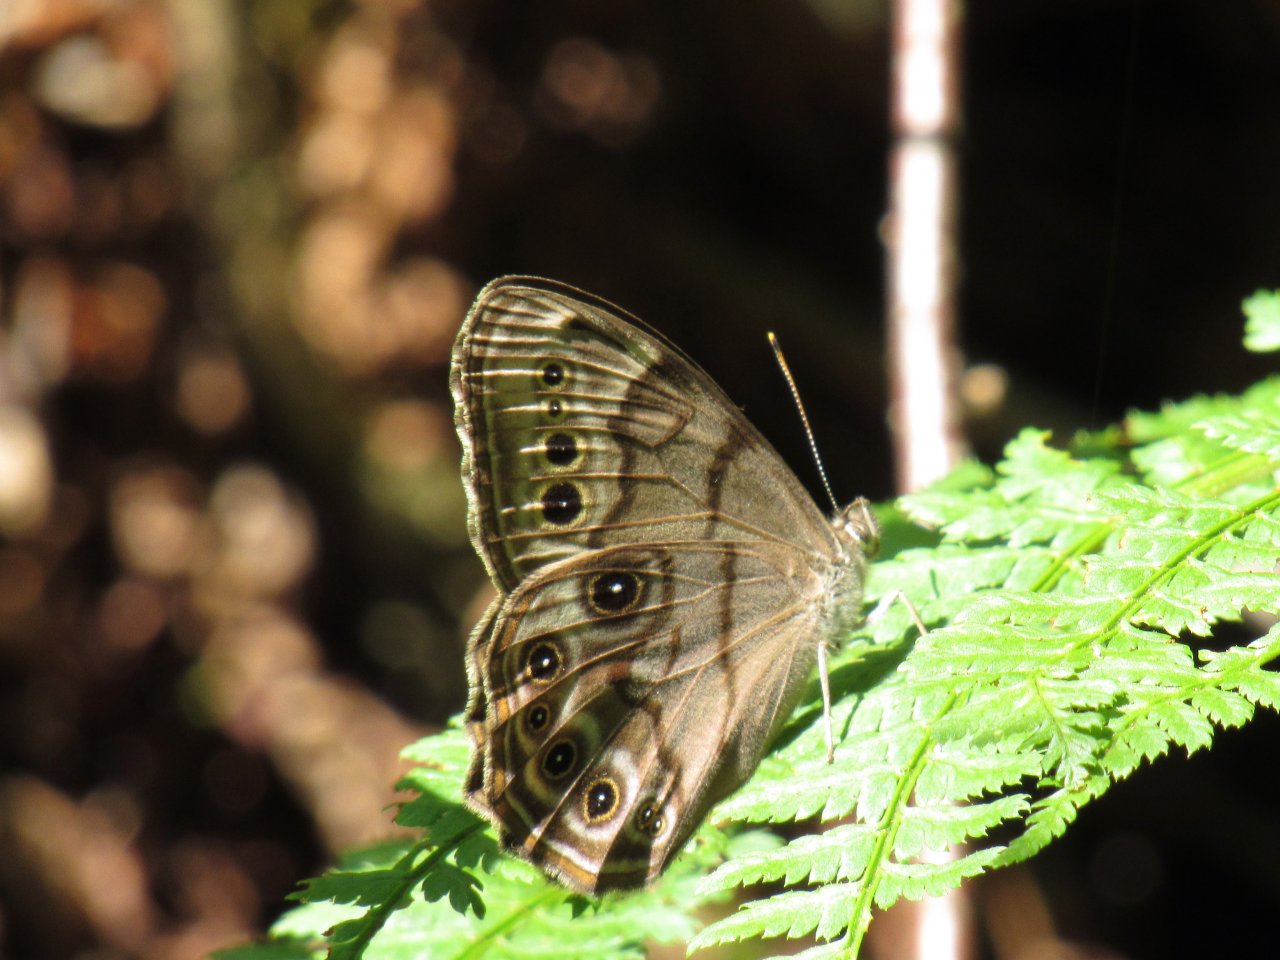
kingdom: Animalia
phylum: Arthropoda
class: Insecta
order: Lepidoptera
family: Nymphalidae
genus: Lethe
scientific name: Lethe anthedon
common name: Northern Pearly-Eye
